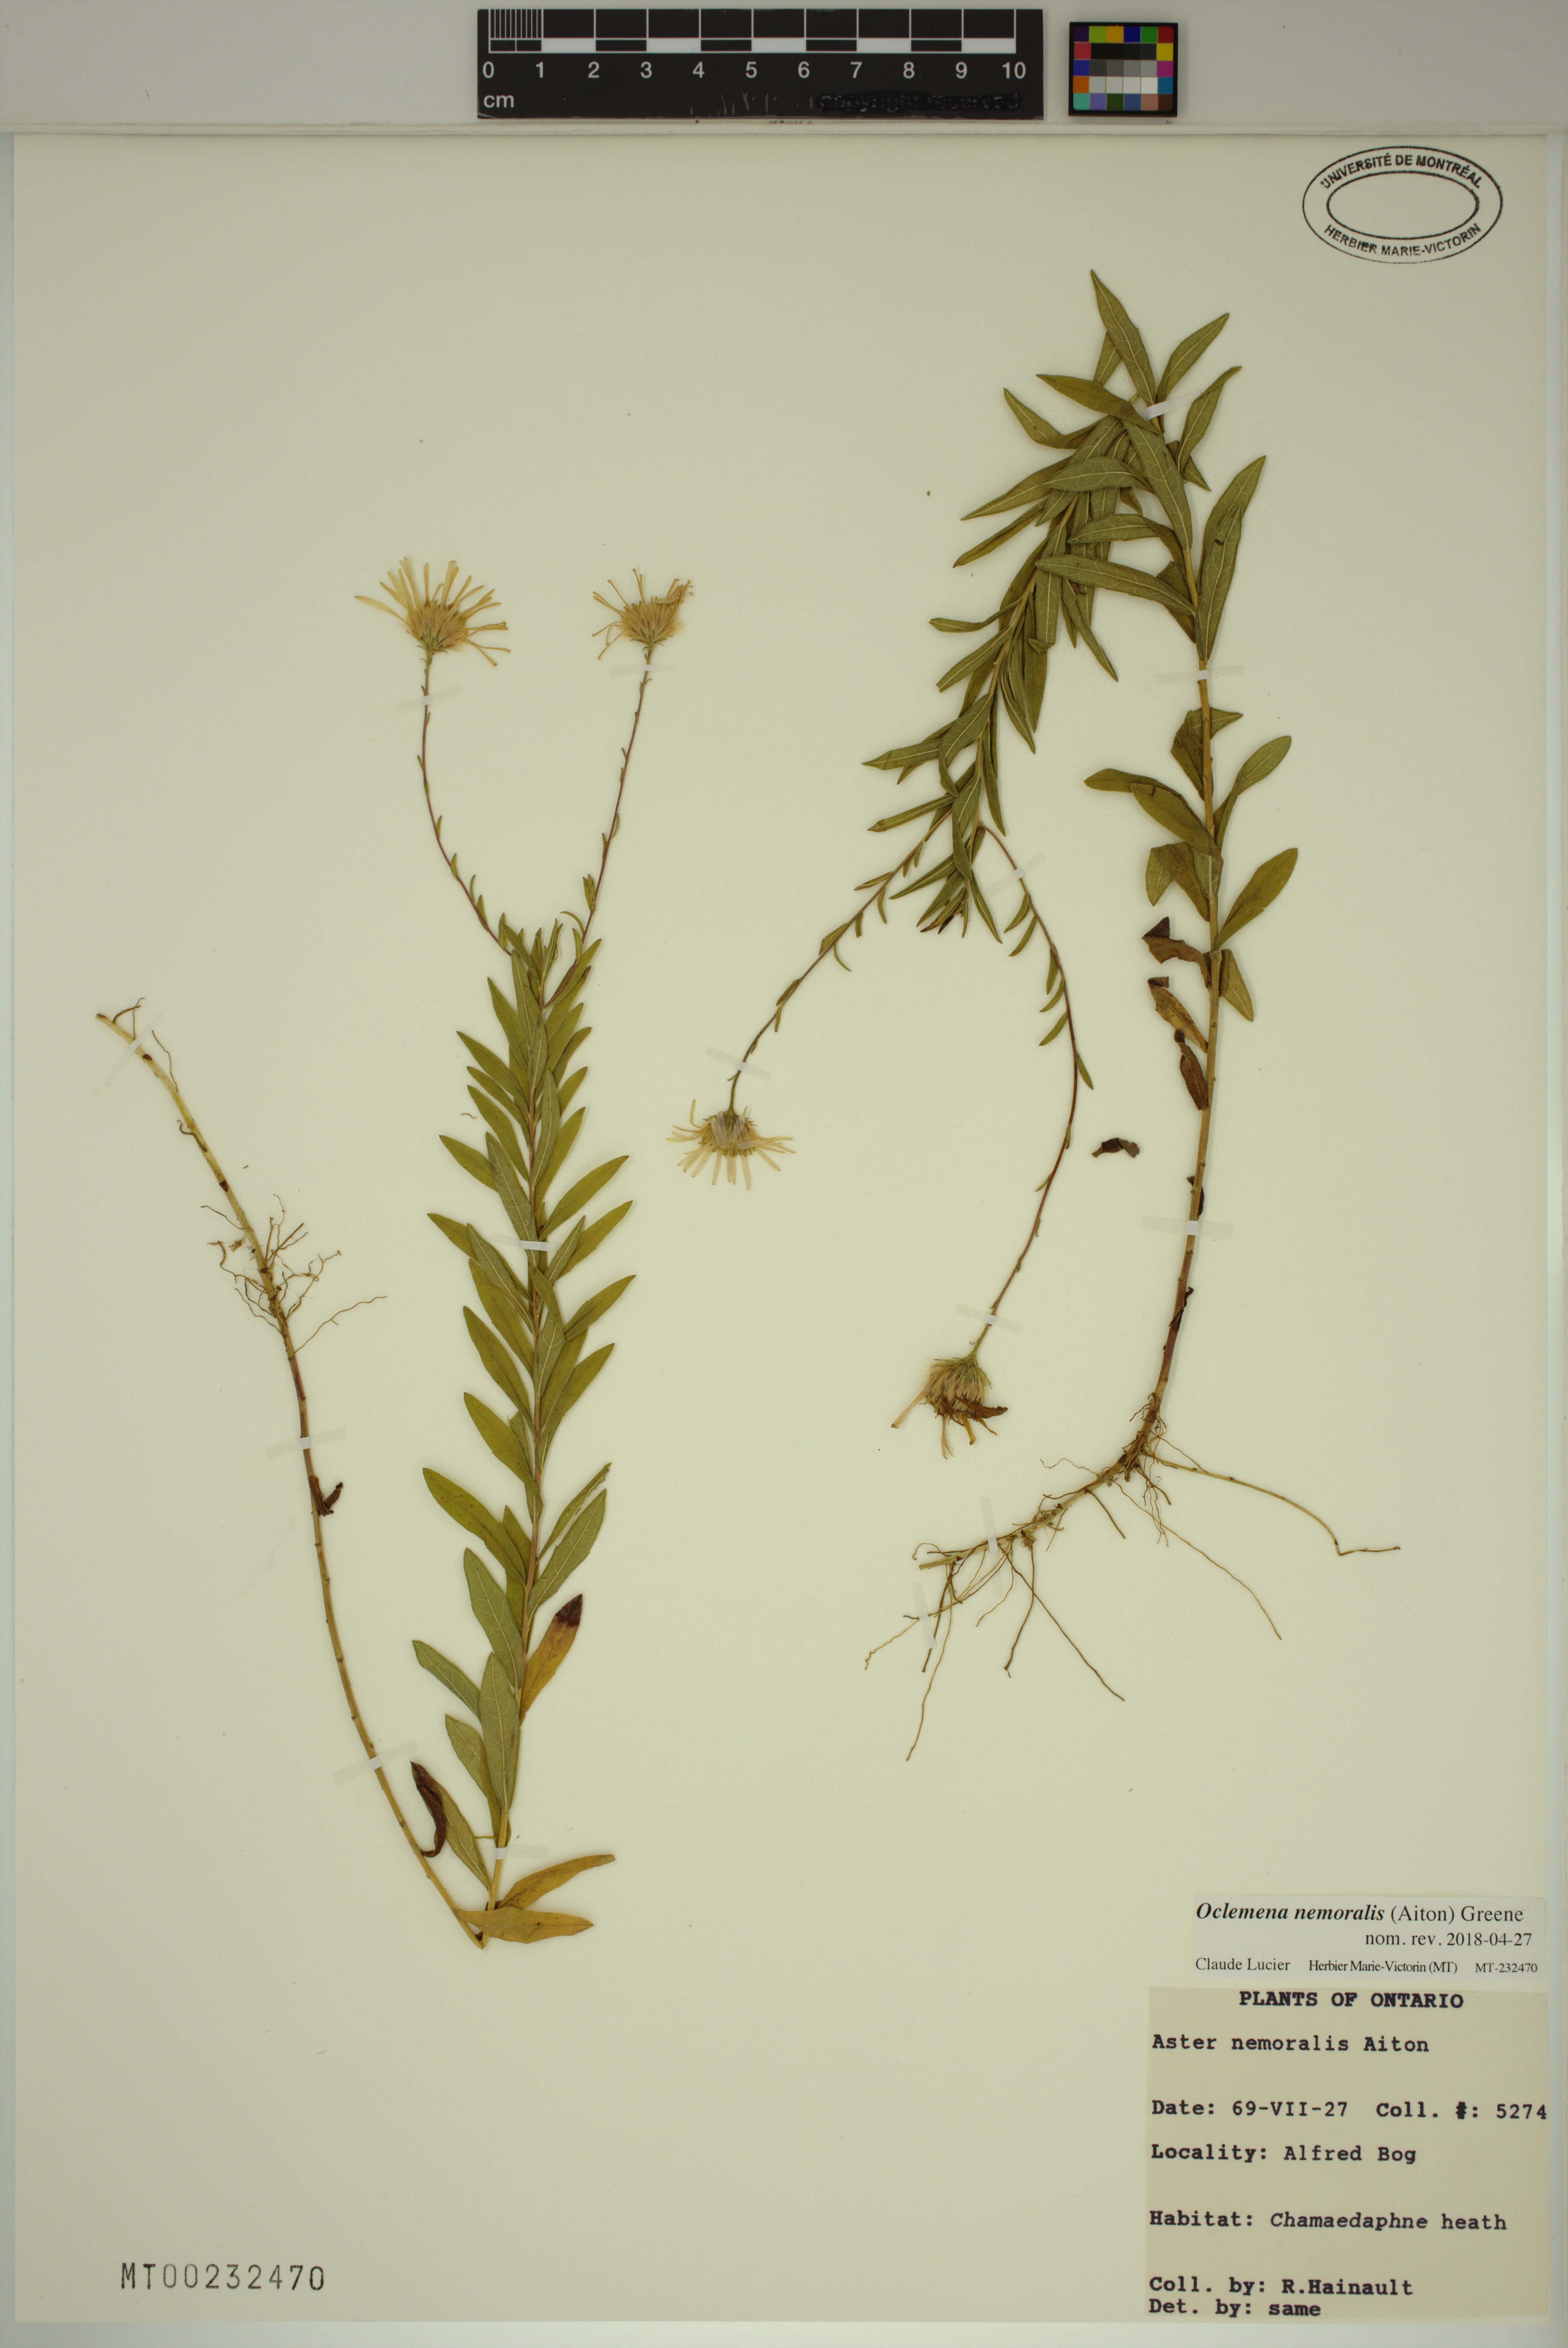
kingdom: Plantae
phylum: Tracheophyta
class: Magnoliopsida
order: Asterales
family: Asteraceae
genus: Oclemena
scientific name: Oclemena nemoralis
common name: Bog aster
